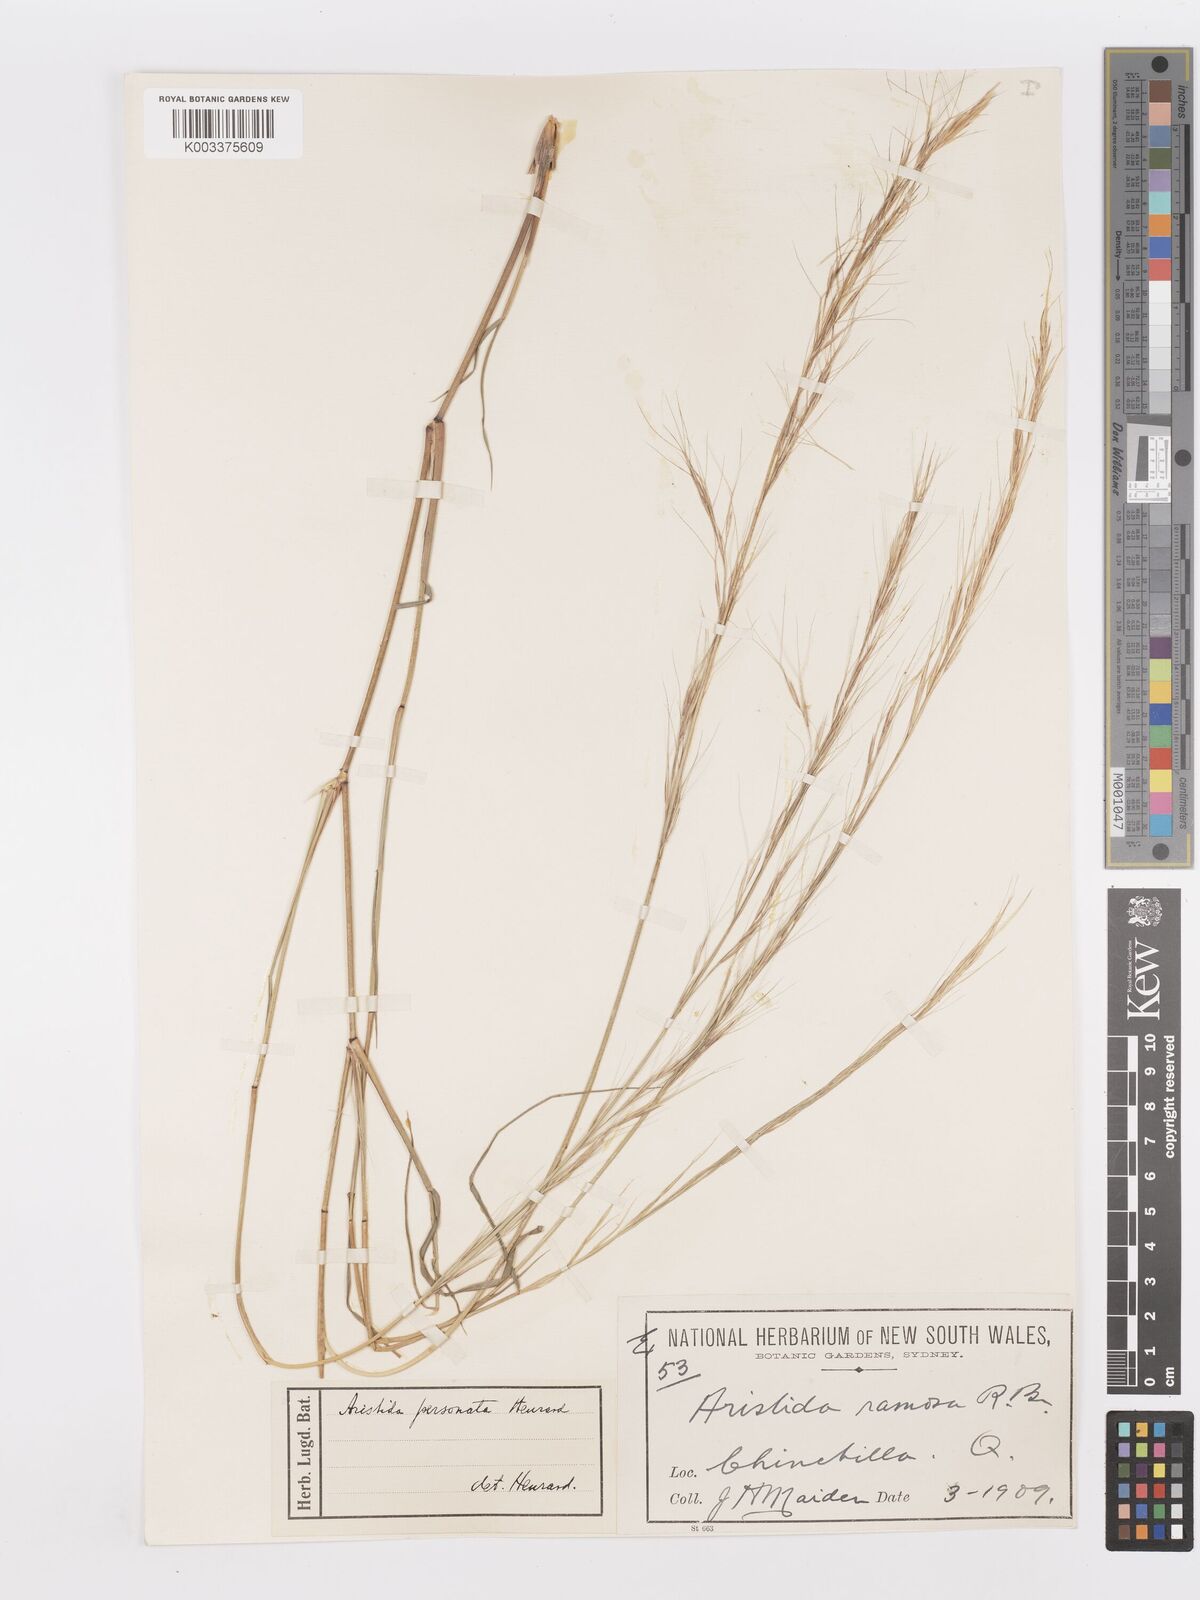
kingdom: Plantae
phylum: Tracheophyta
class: Liliopsida
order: Poales
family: Poaceae
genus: Aristida
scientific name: Aristida personata
